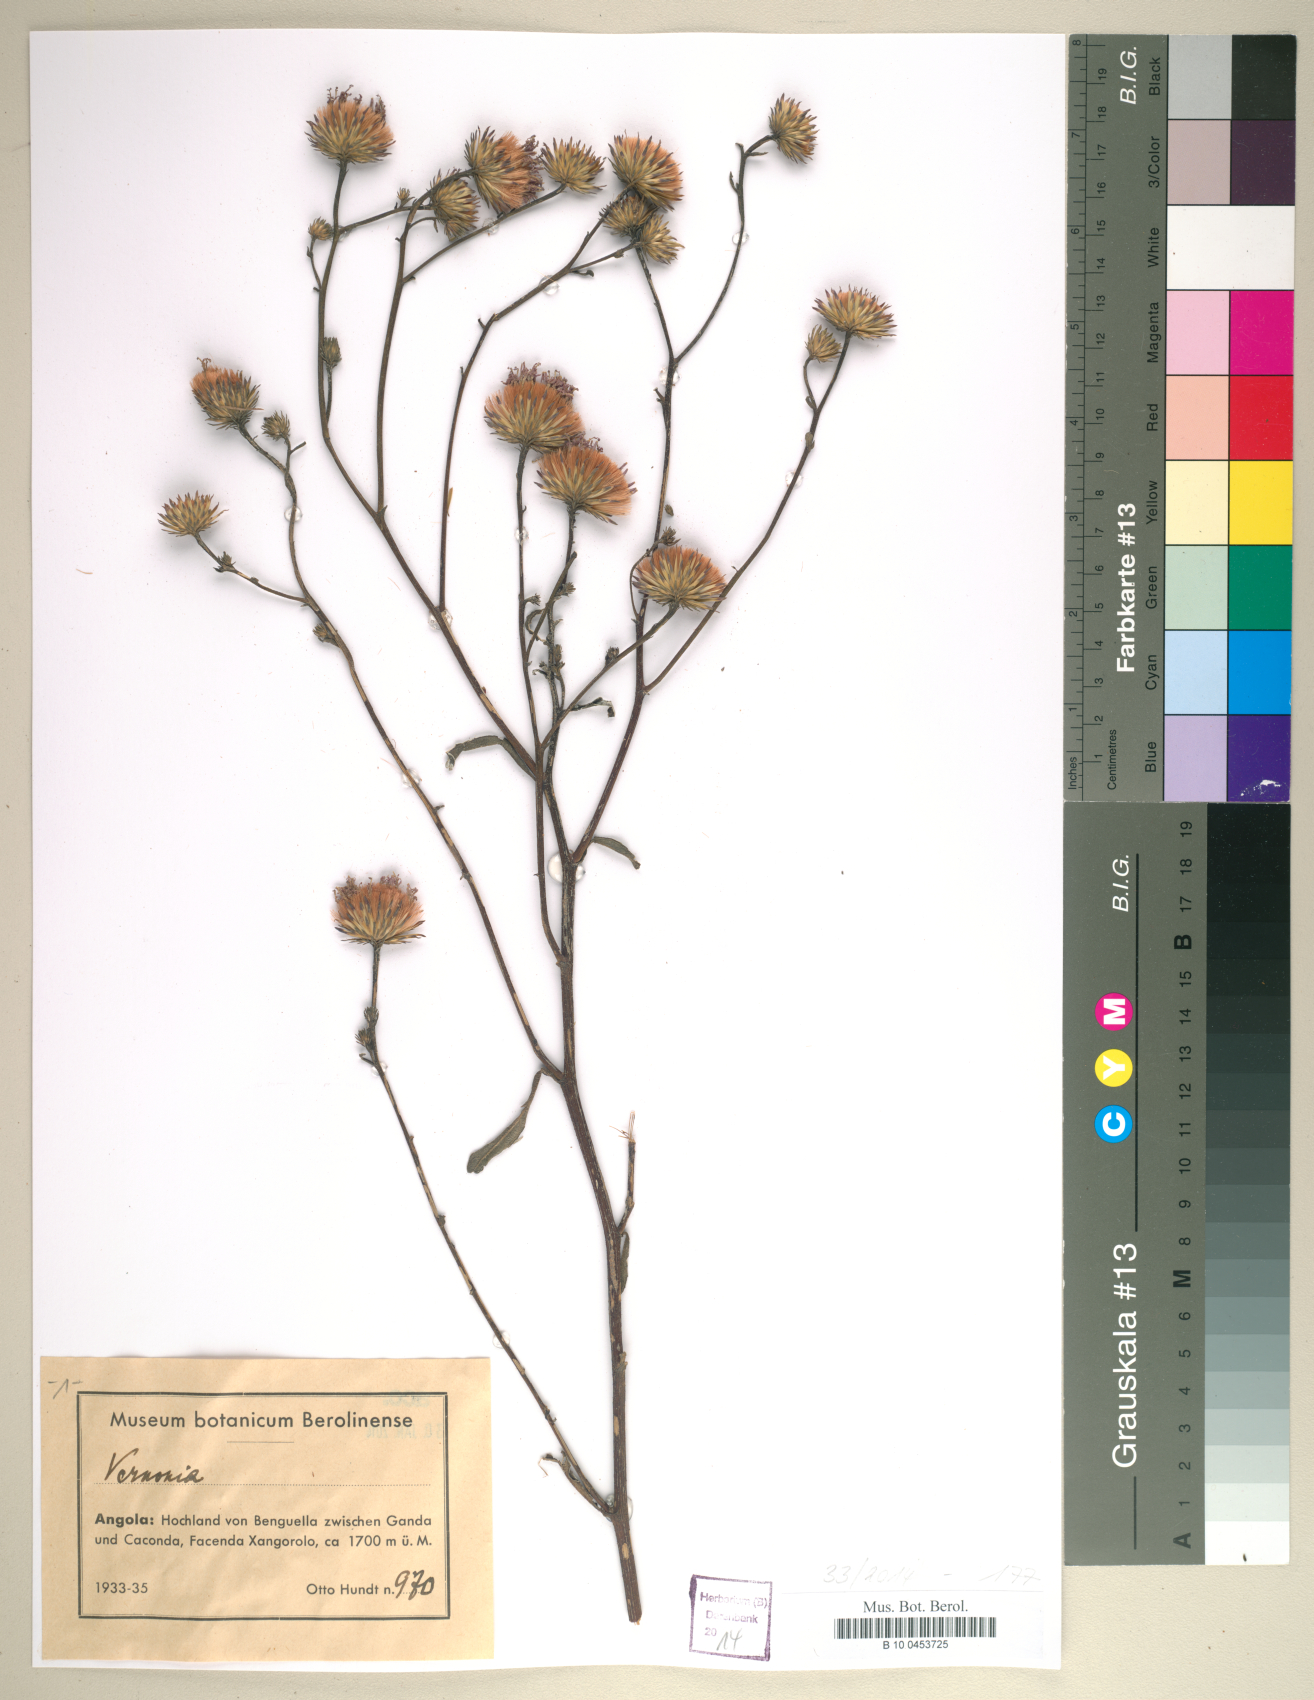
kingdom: Plantae
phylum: Tracheophyta
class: Magnoliopsida
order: Asterales
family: Asteraceae
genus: Vernonia
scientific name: Vernonia
